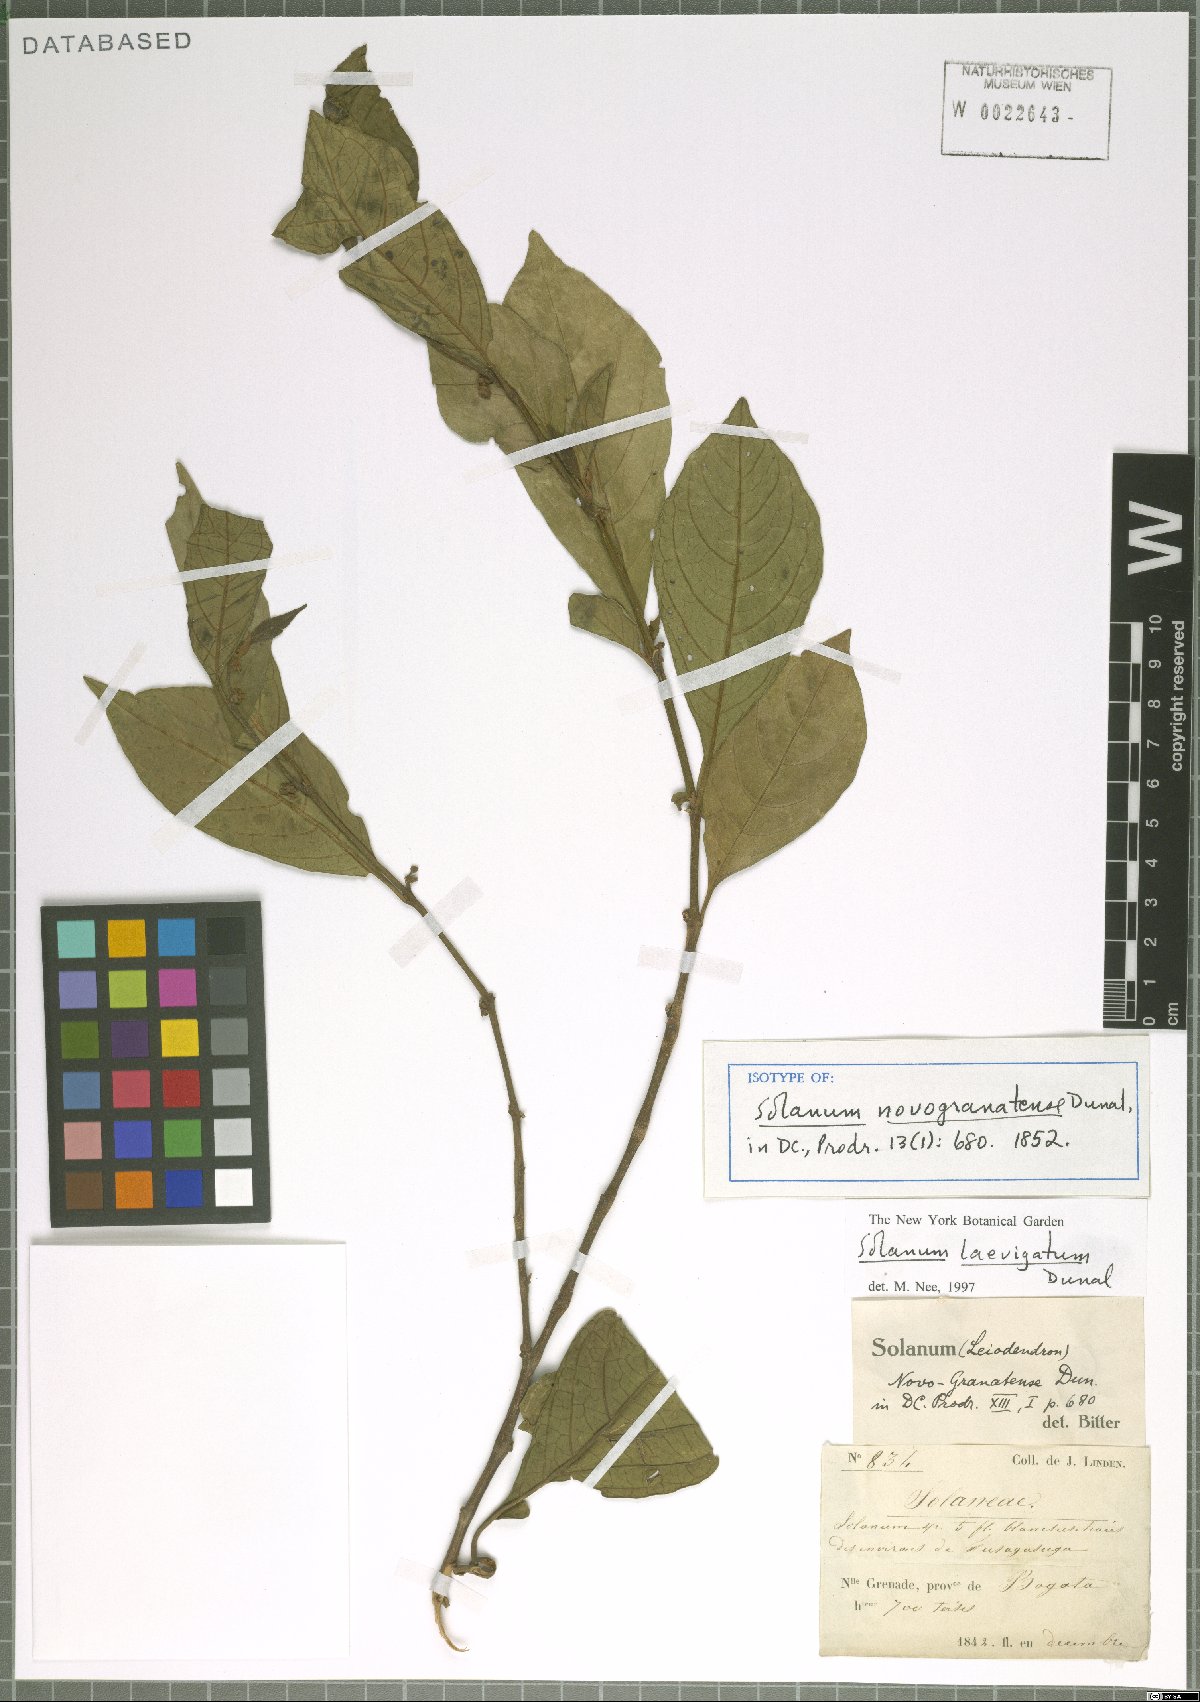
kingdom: Plantae
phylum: Tracheophyta
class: Magnoliopsida
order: Solanales
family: Solanaceae
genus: Solanum
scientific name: Solanum laevigatum
